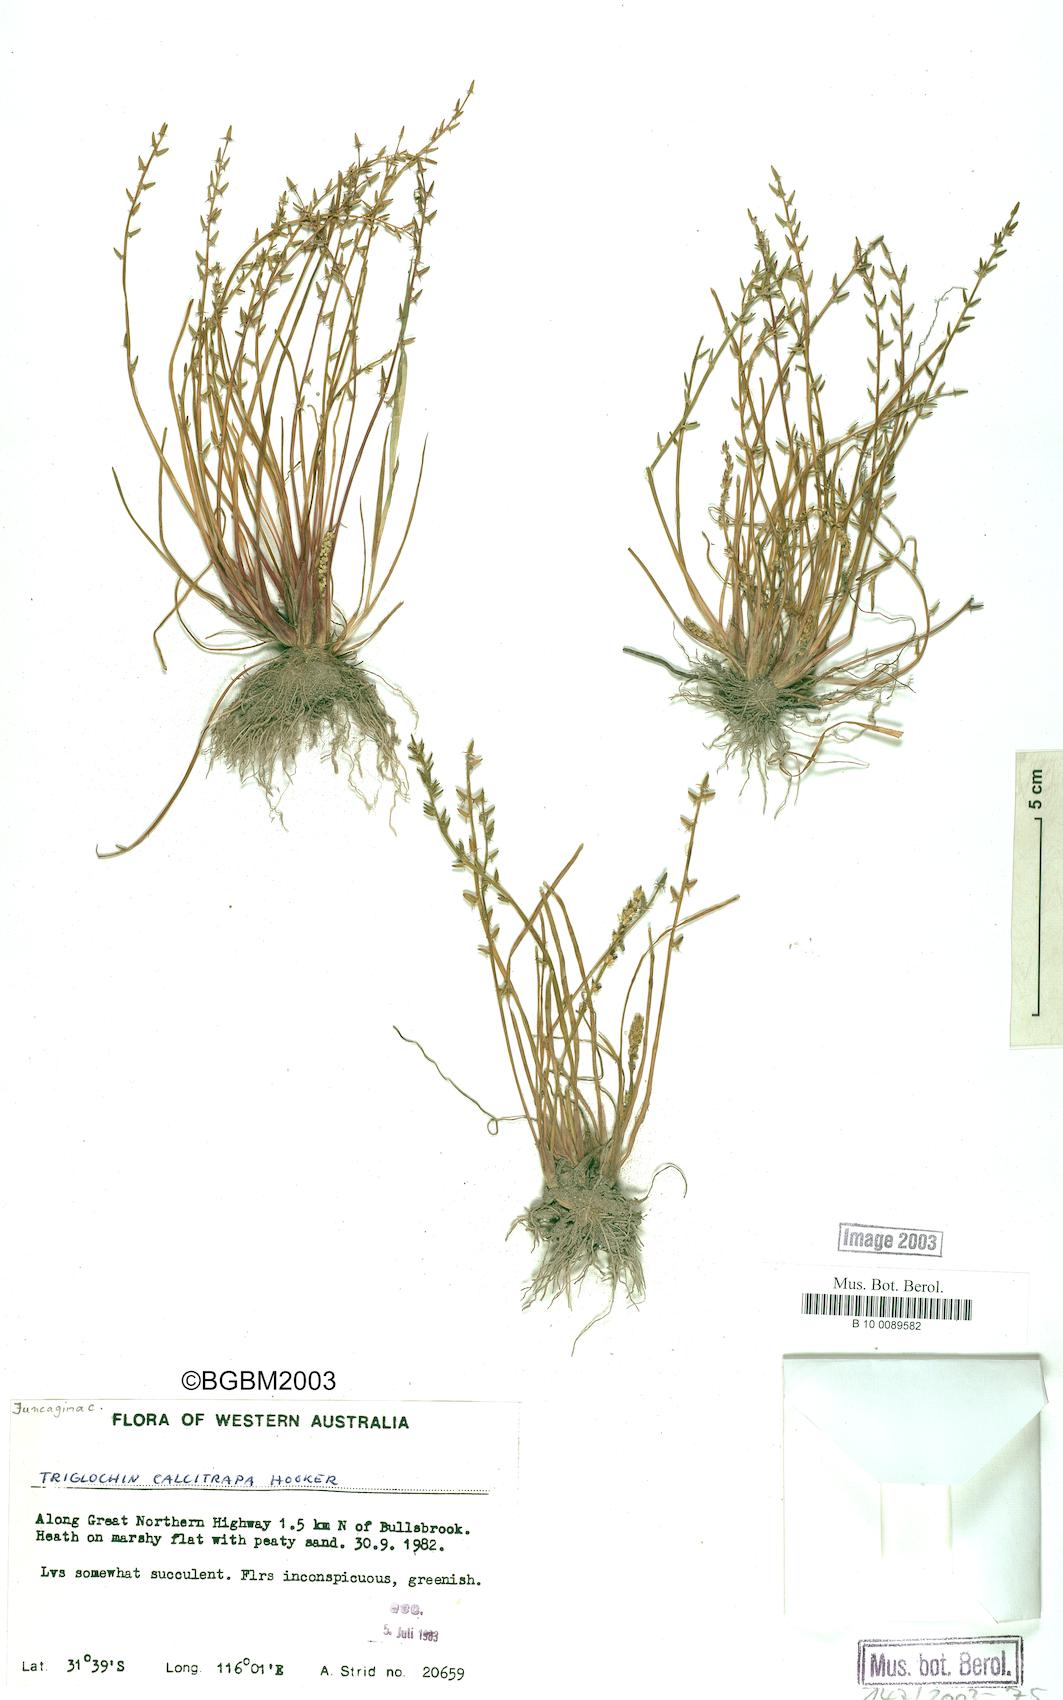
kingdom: Plantae
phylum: Tracheophyta
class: Liliopsida
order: Alismatales
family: Juncaginaceae
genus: Triglochin
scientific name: Triglochin calcitrapa
